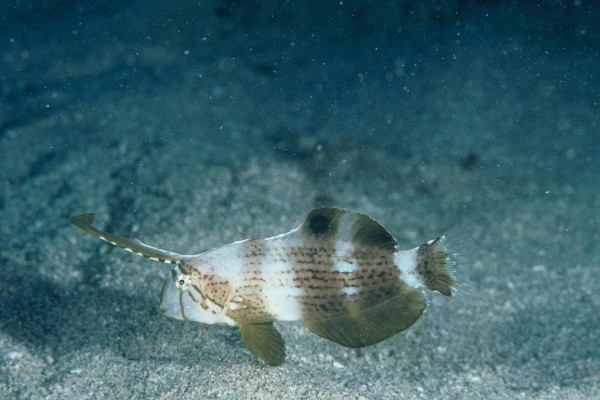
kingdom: Animalia
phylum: Chordata
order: Perciformes
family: Labridae
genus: Iniistius
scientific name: Iniistius pavo
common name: Peacock wrasse
